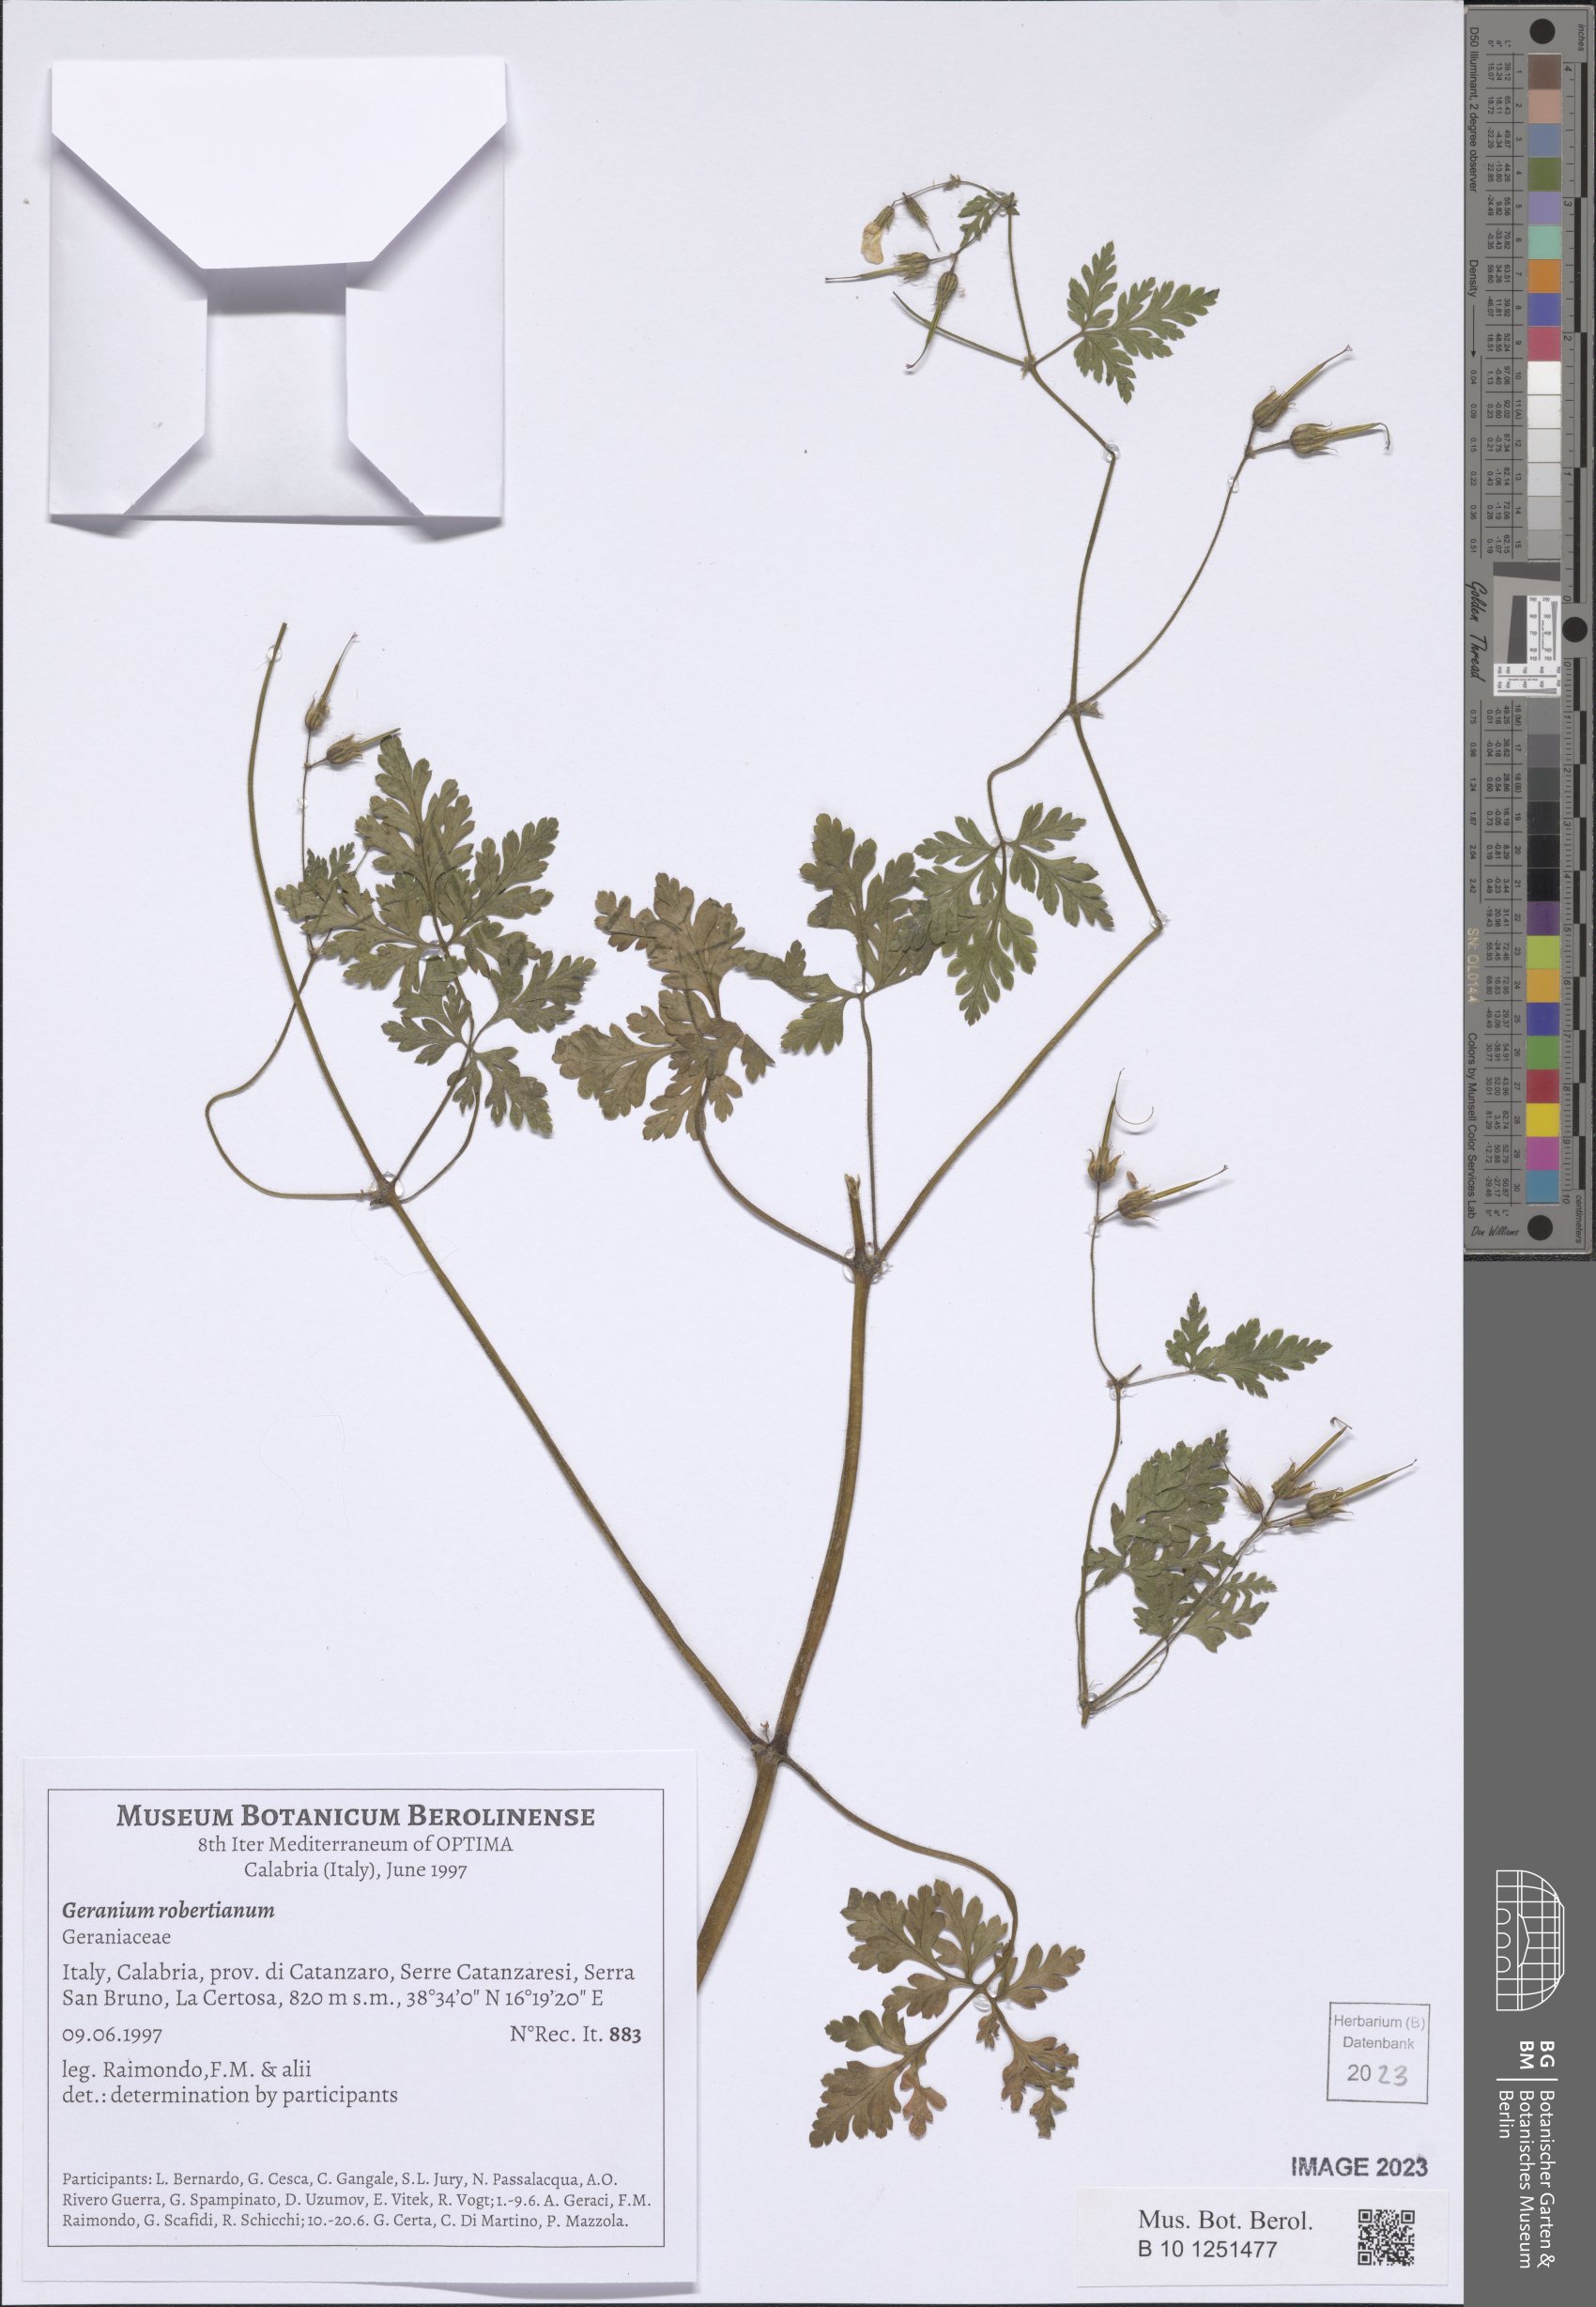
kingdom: Plantae
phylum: Tracheophyta
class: Magnoliopsida
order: Geraniales
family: Geraniaceae
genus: Geranium
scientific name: Geranium robertianum
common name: Herb-robert
